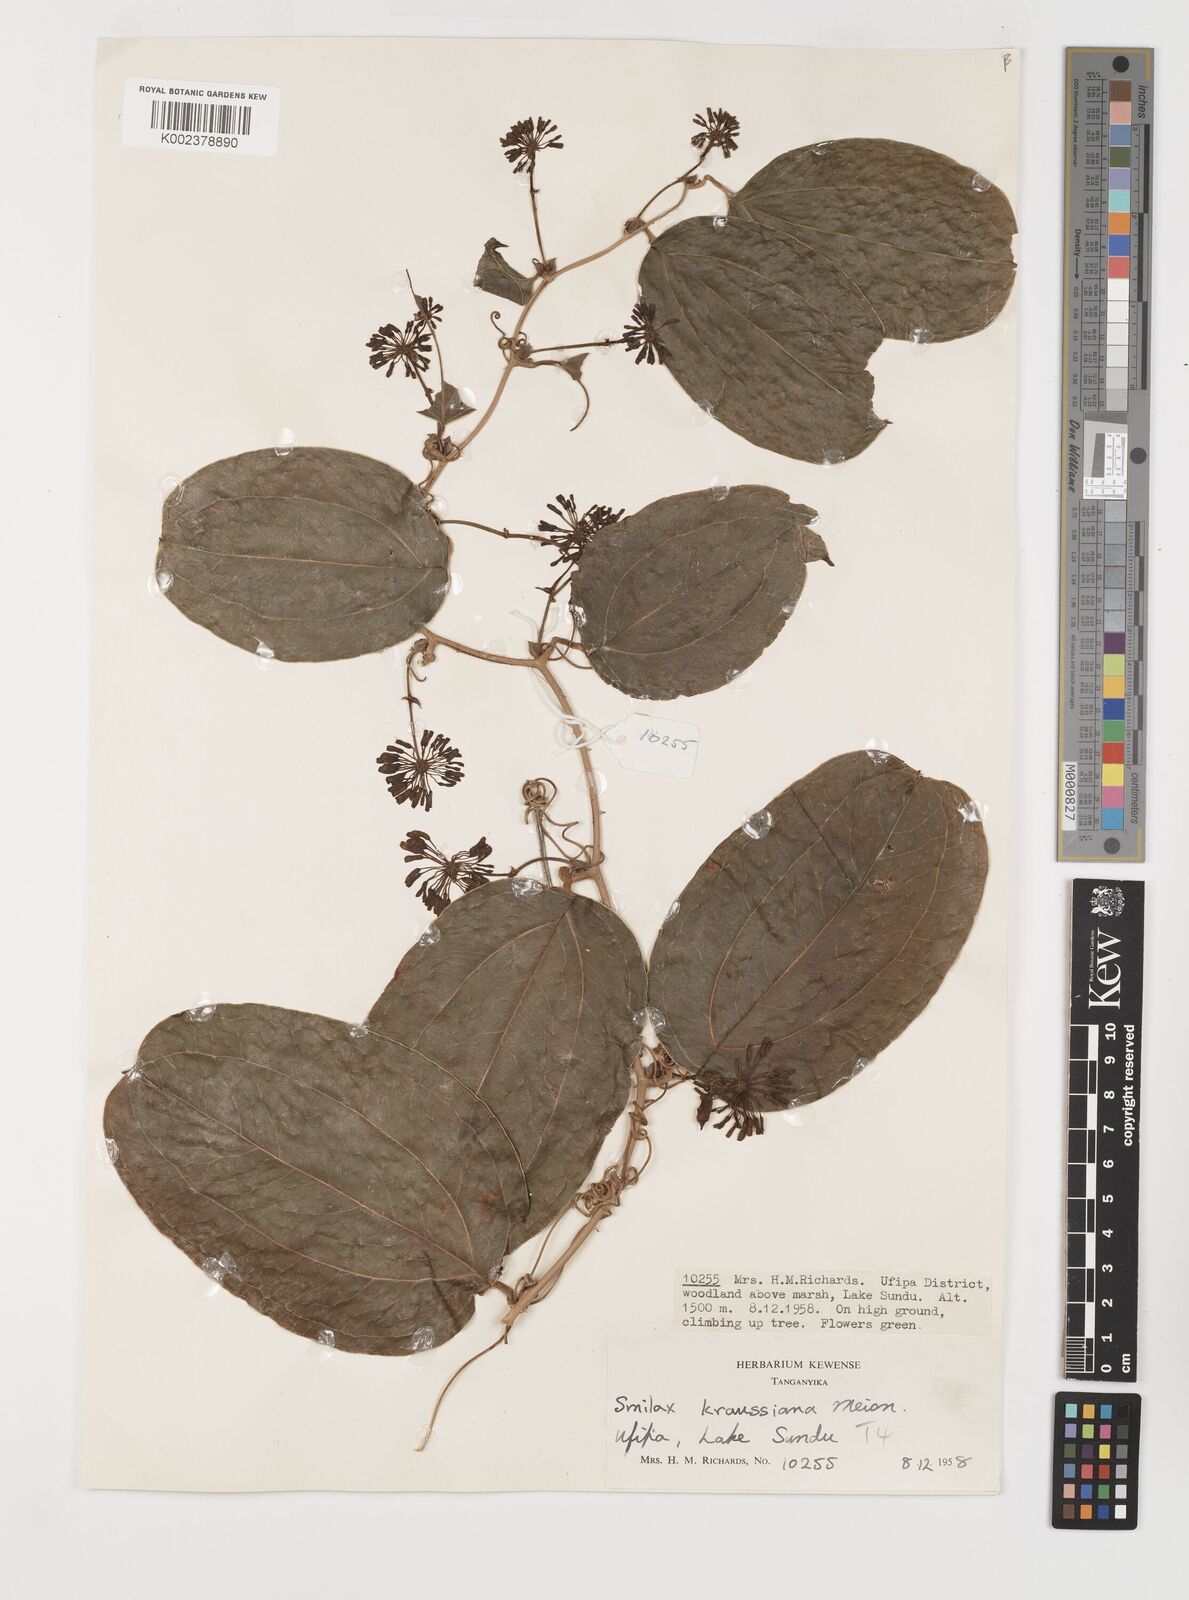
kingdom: Plantae
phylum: Tracheophyta
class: Liliopsida
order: Liliales
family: Smilacaceae
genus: Smilax
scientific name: Smilax anceps
